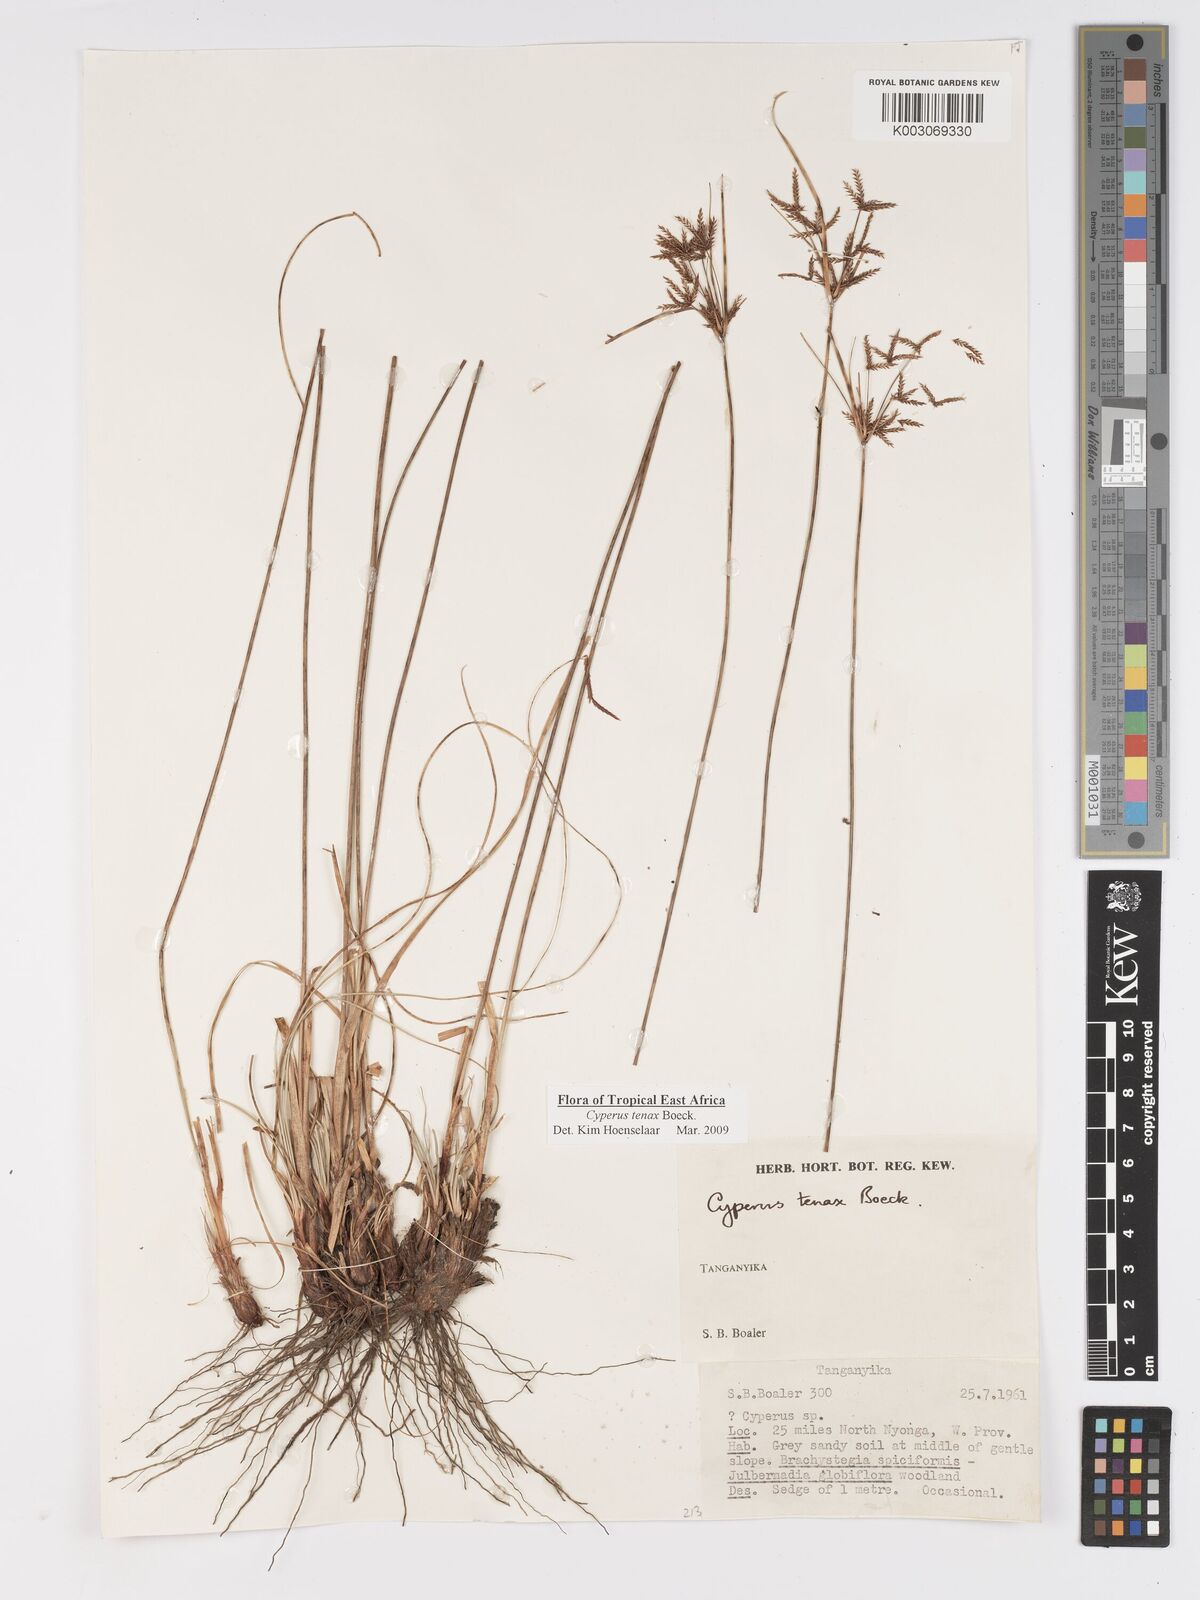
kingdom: Plantae
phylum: Tracheophyta
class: Liliopsida
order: Poales
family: Cyperaceae
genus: Cyperus
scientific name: Cyperus tenax
